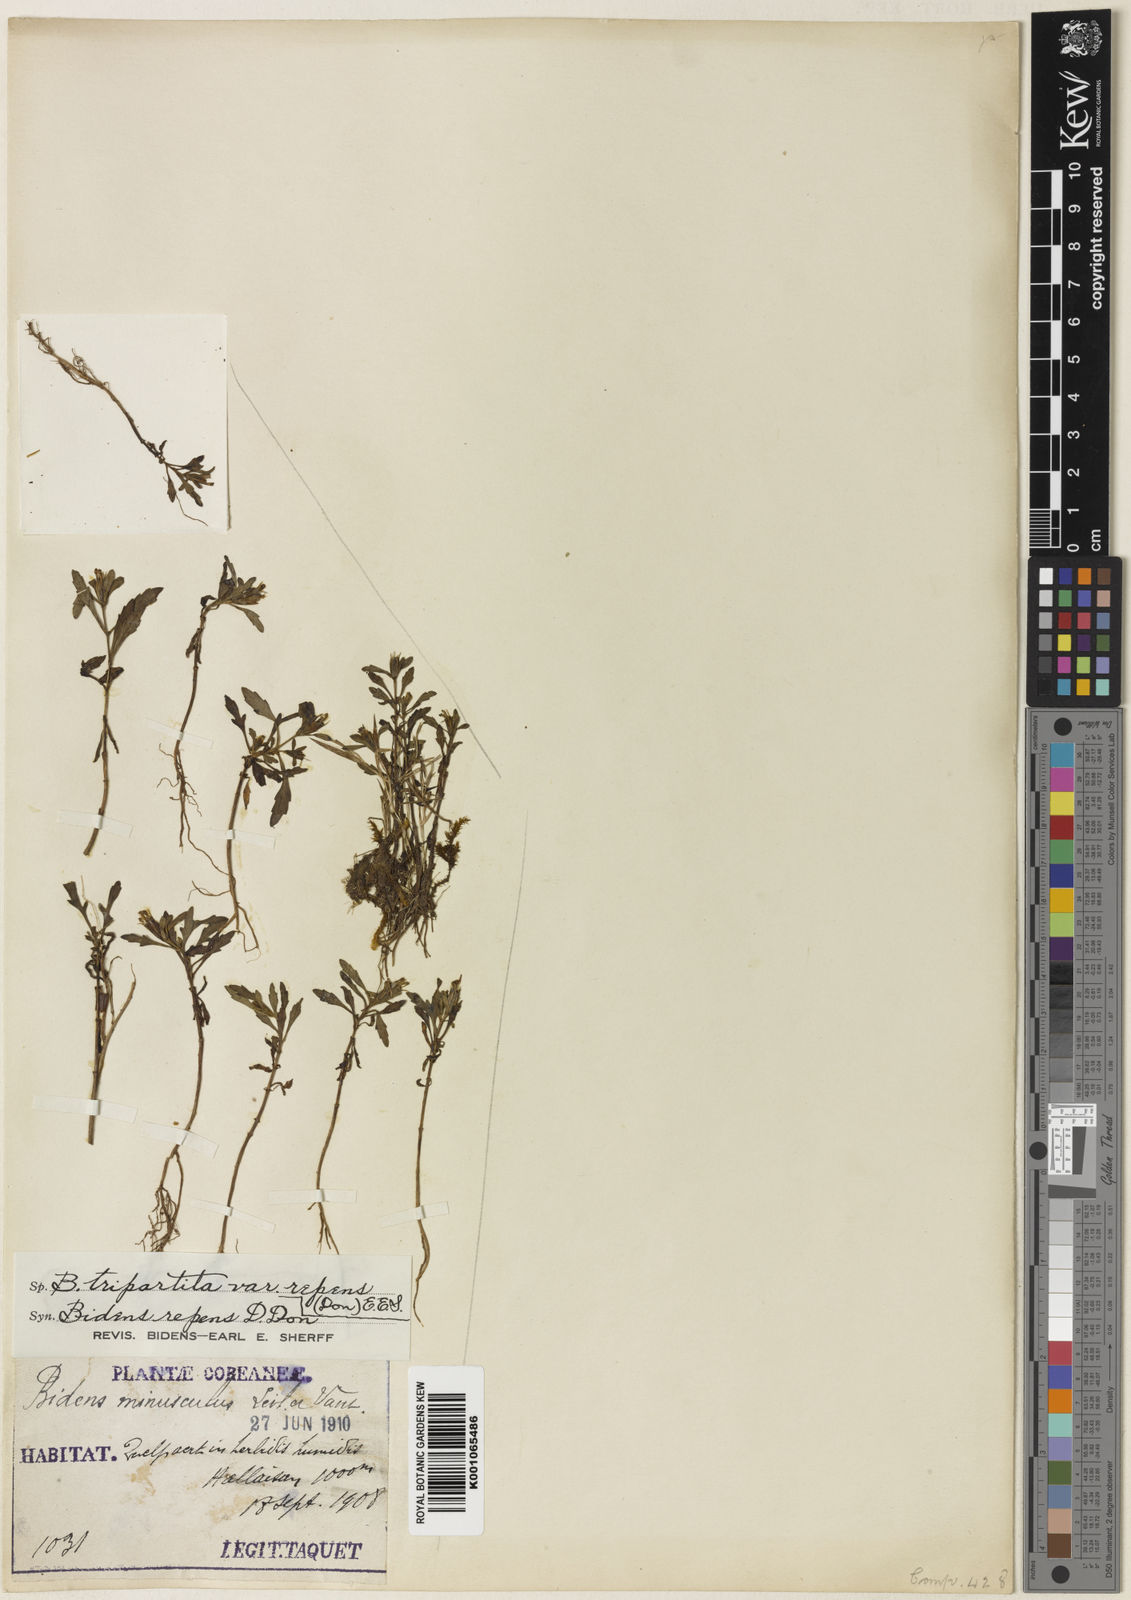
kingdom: Plantae
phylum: Tracheophyta
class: Magnoliopsida
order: Asterales
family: Asteraceae
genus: Bidens
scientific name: Bidens tripartita
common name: Trifid bur-marigold
